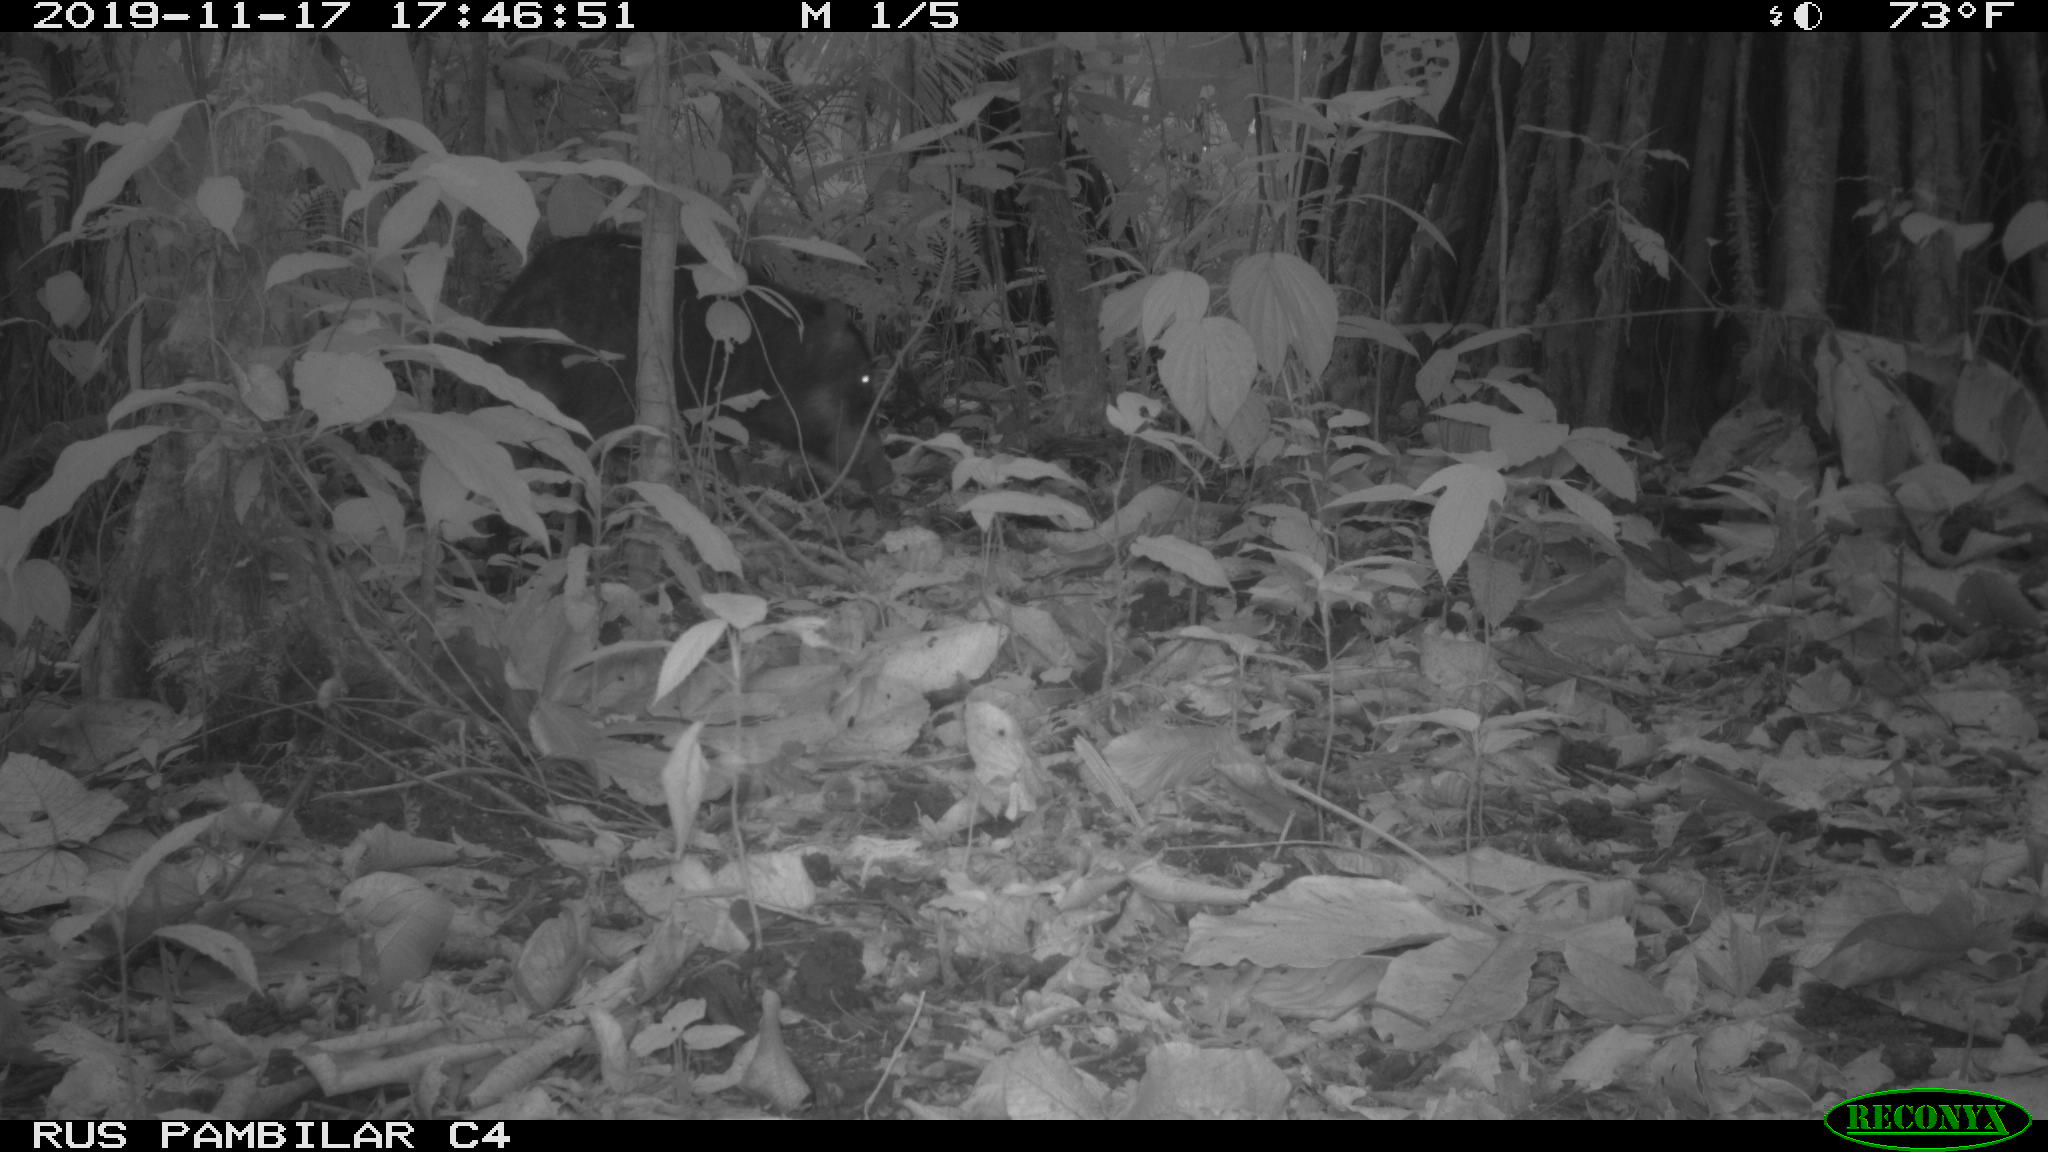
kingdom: Animalia
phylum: Chordata
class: Mammalia
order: Artiodactyla
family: Tayassuidae
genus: Tayassu
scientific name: Tayassu pecari
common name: White-lipped peccary
